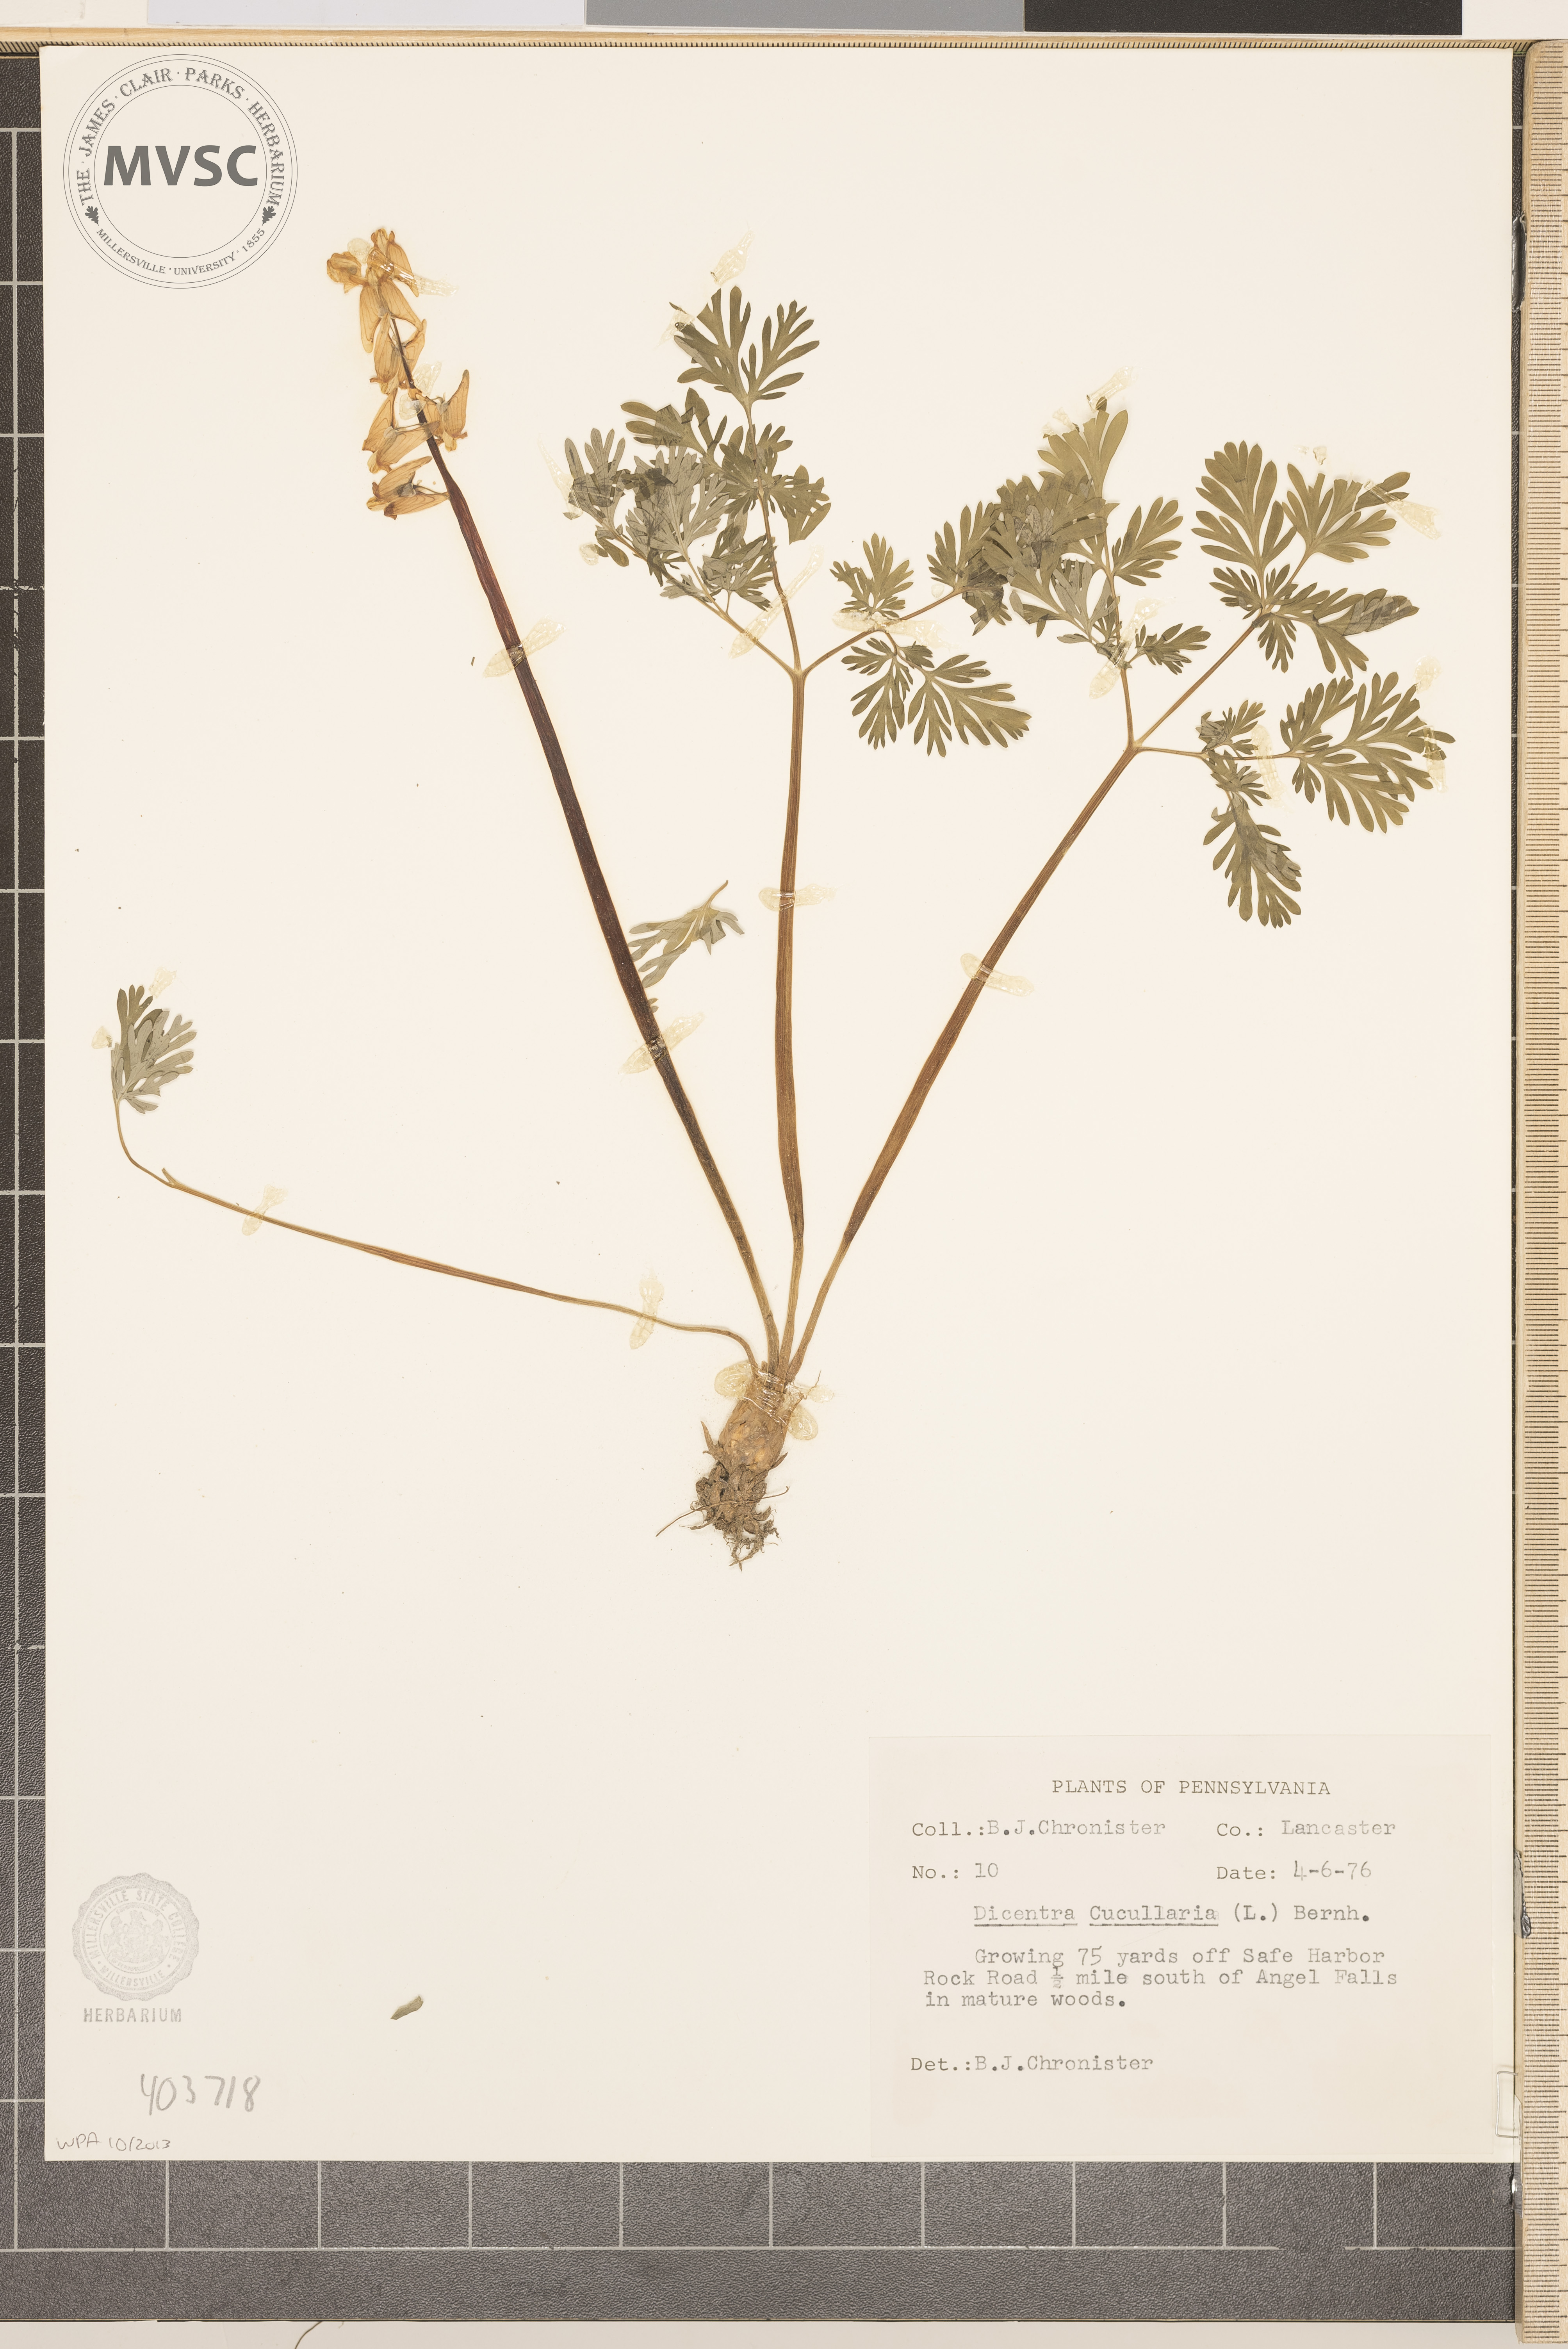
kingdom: Plantae
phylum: Tracheophyta
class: Magnoliopsida
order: Ranunculales
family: Papaveraceae
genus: Dicentra
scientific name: Dicentra cucullaria
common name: Dutchman's breeches
